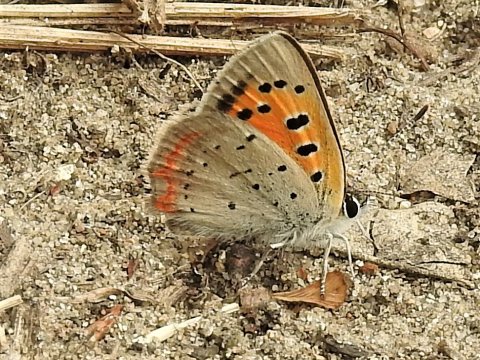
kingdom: Animalia
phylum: Arthropoda
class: Insecta
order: Lepidoptera
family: Lycaenidae
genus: Lycaena
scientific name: Lycaena phlaeas
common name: American Copper
